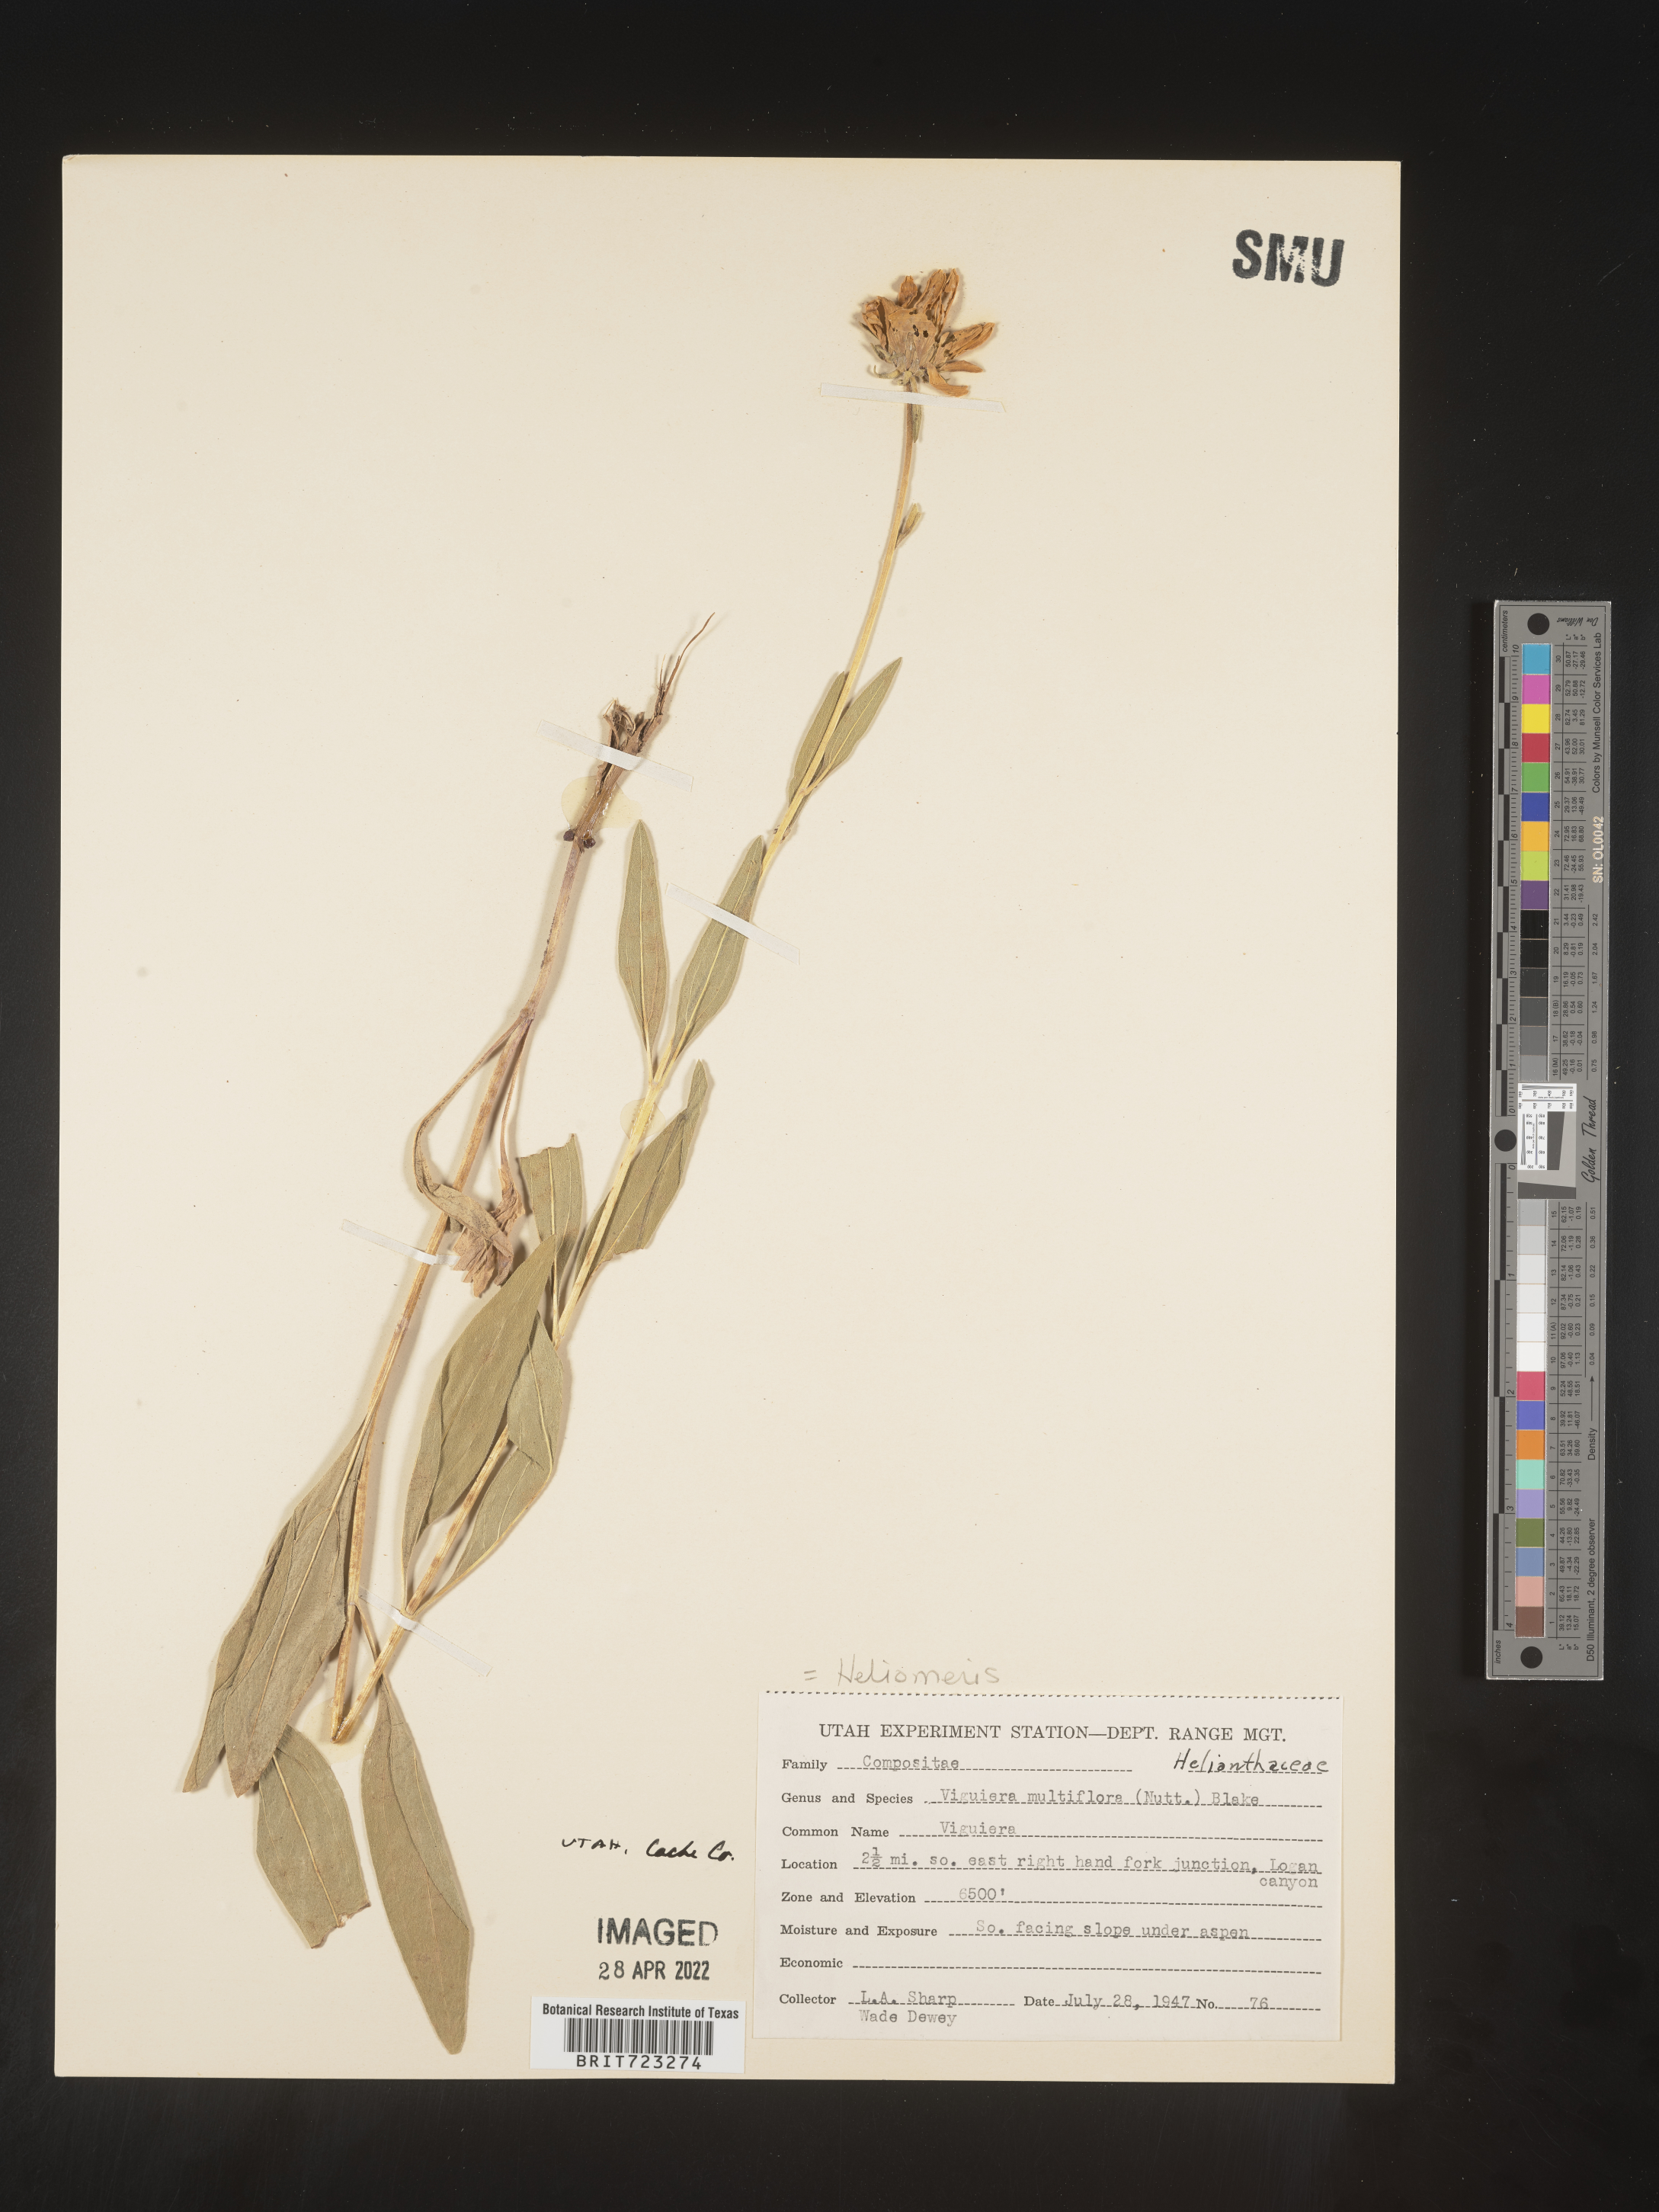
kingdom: Plantae
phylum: Tracheophyta
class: Magnoliopsida
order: Asterales
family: Asteraceae
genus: Heliomeris
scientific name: Heliomeris multiflora
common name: Showy goldeneye
